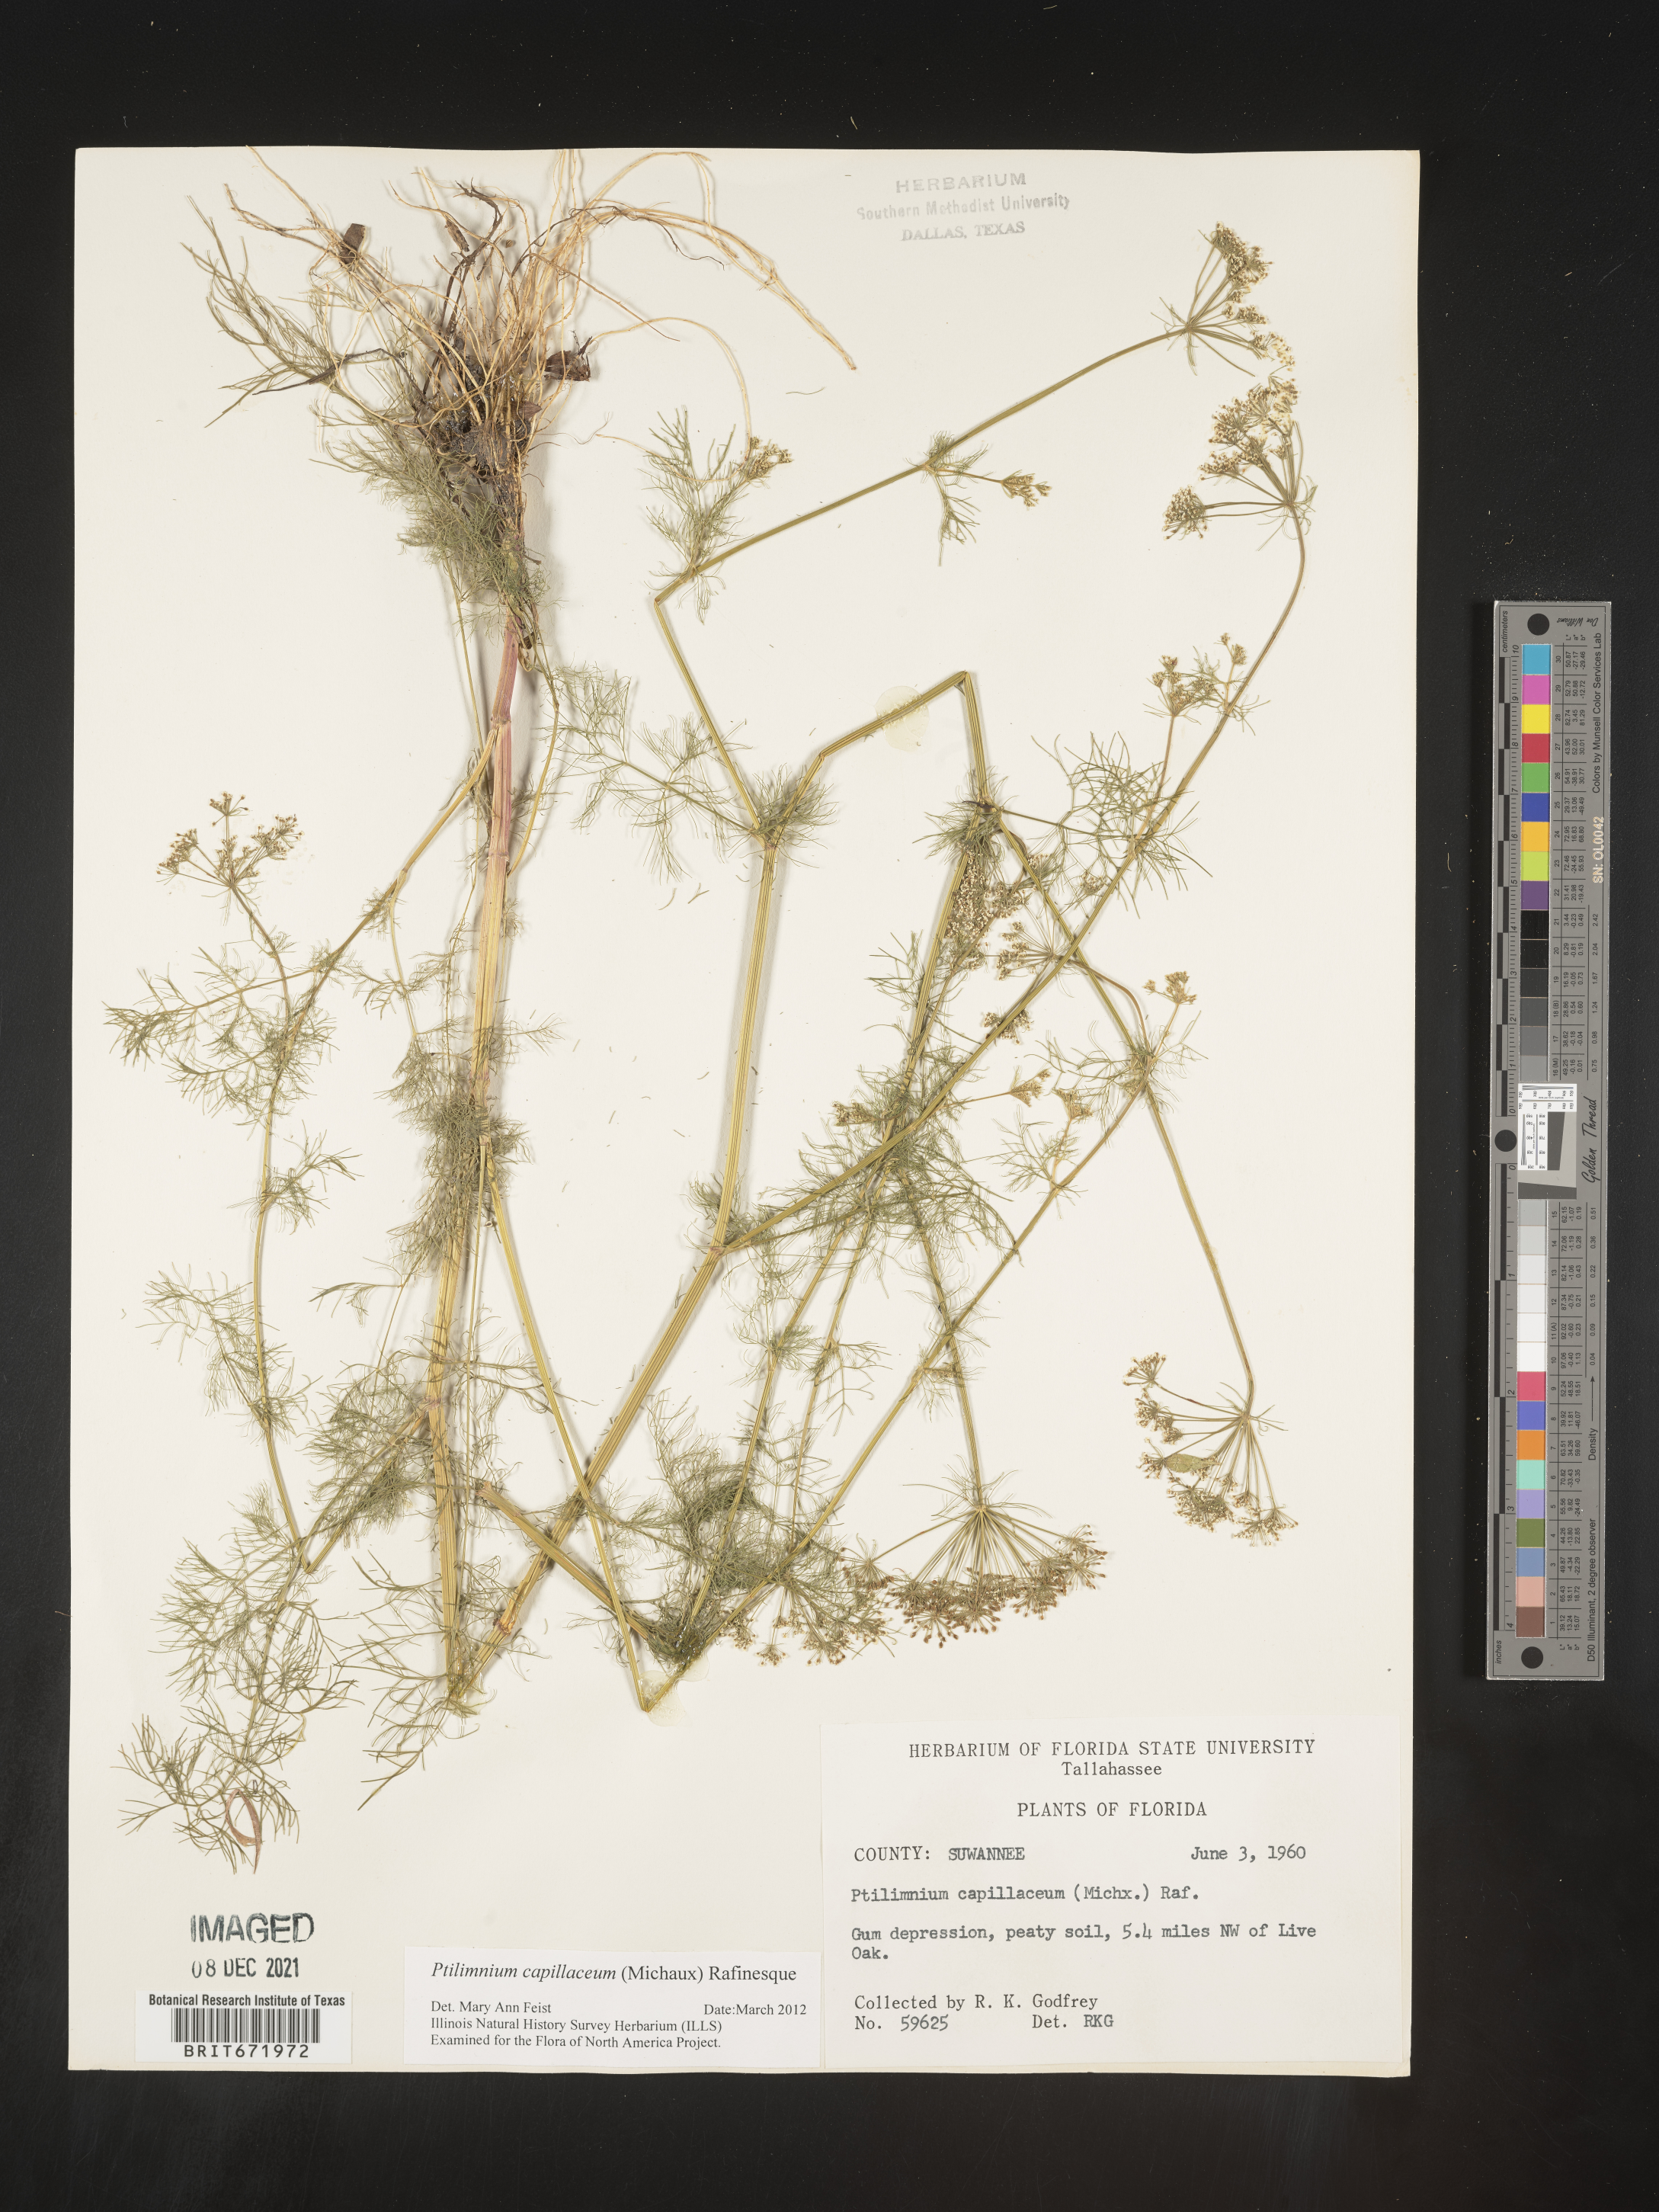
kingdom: Plantae
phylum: Tracheophyta
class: Magnoliopsida
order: Apiales
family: Apiaceae
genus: Ptilimnium
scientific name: Ptilimnium capillaceum
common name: Herbwilliam
